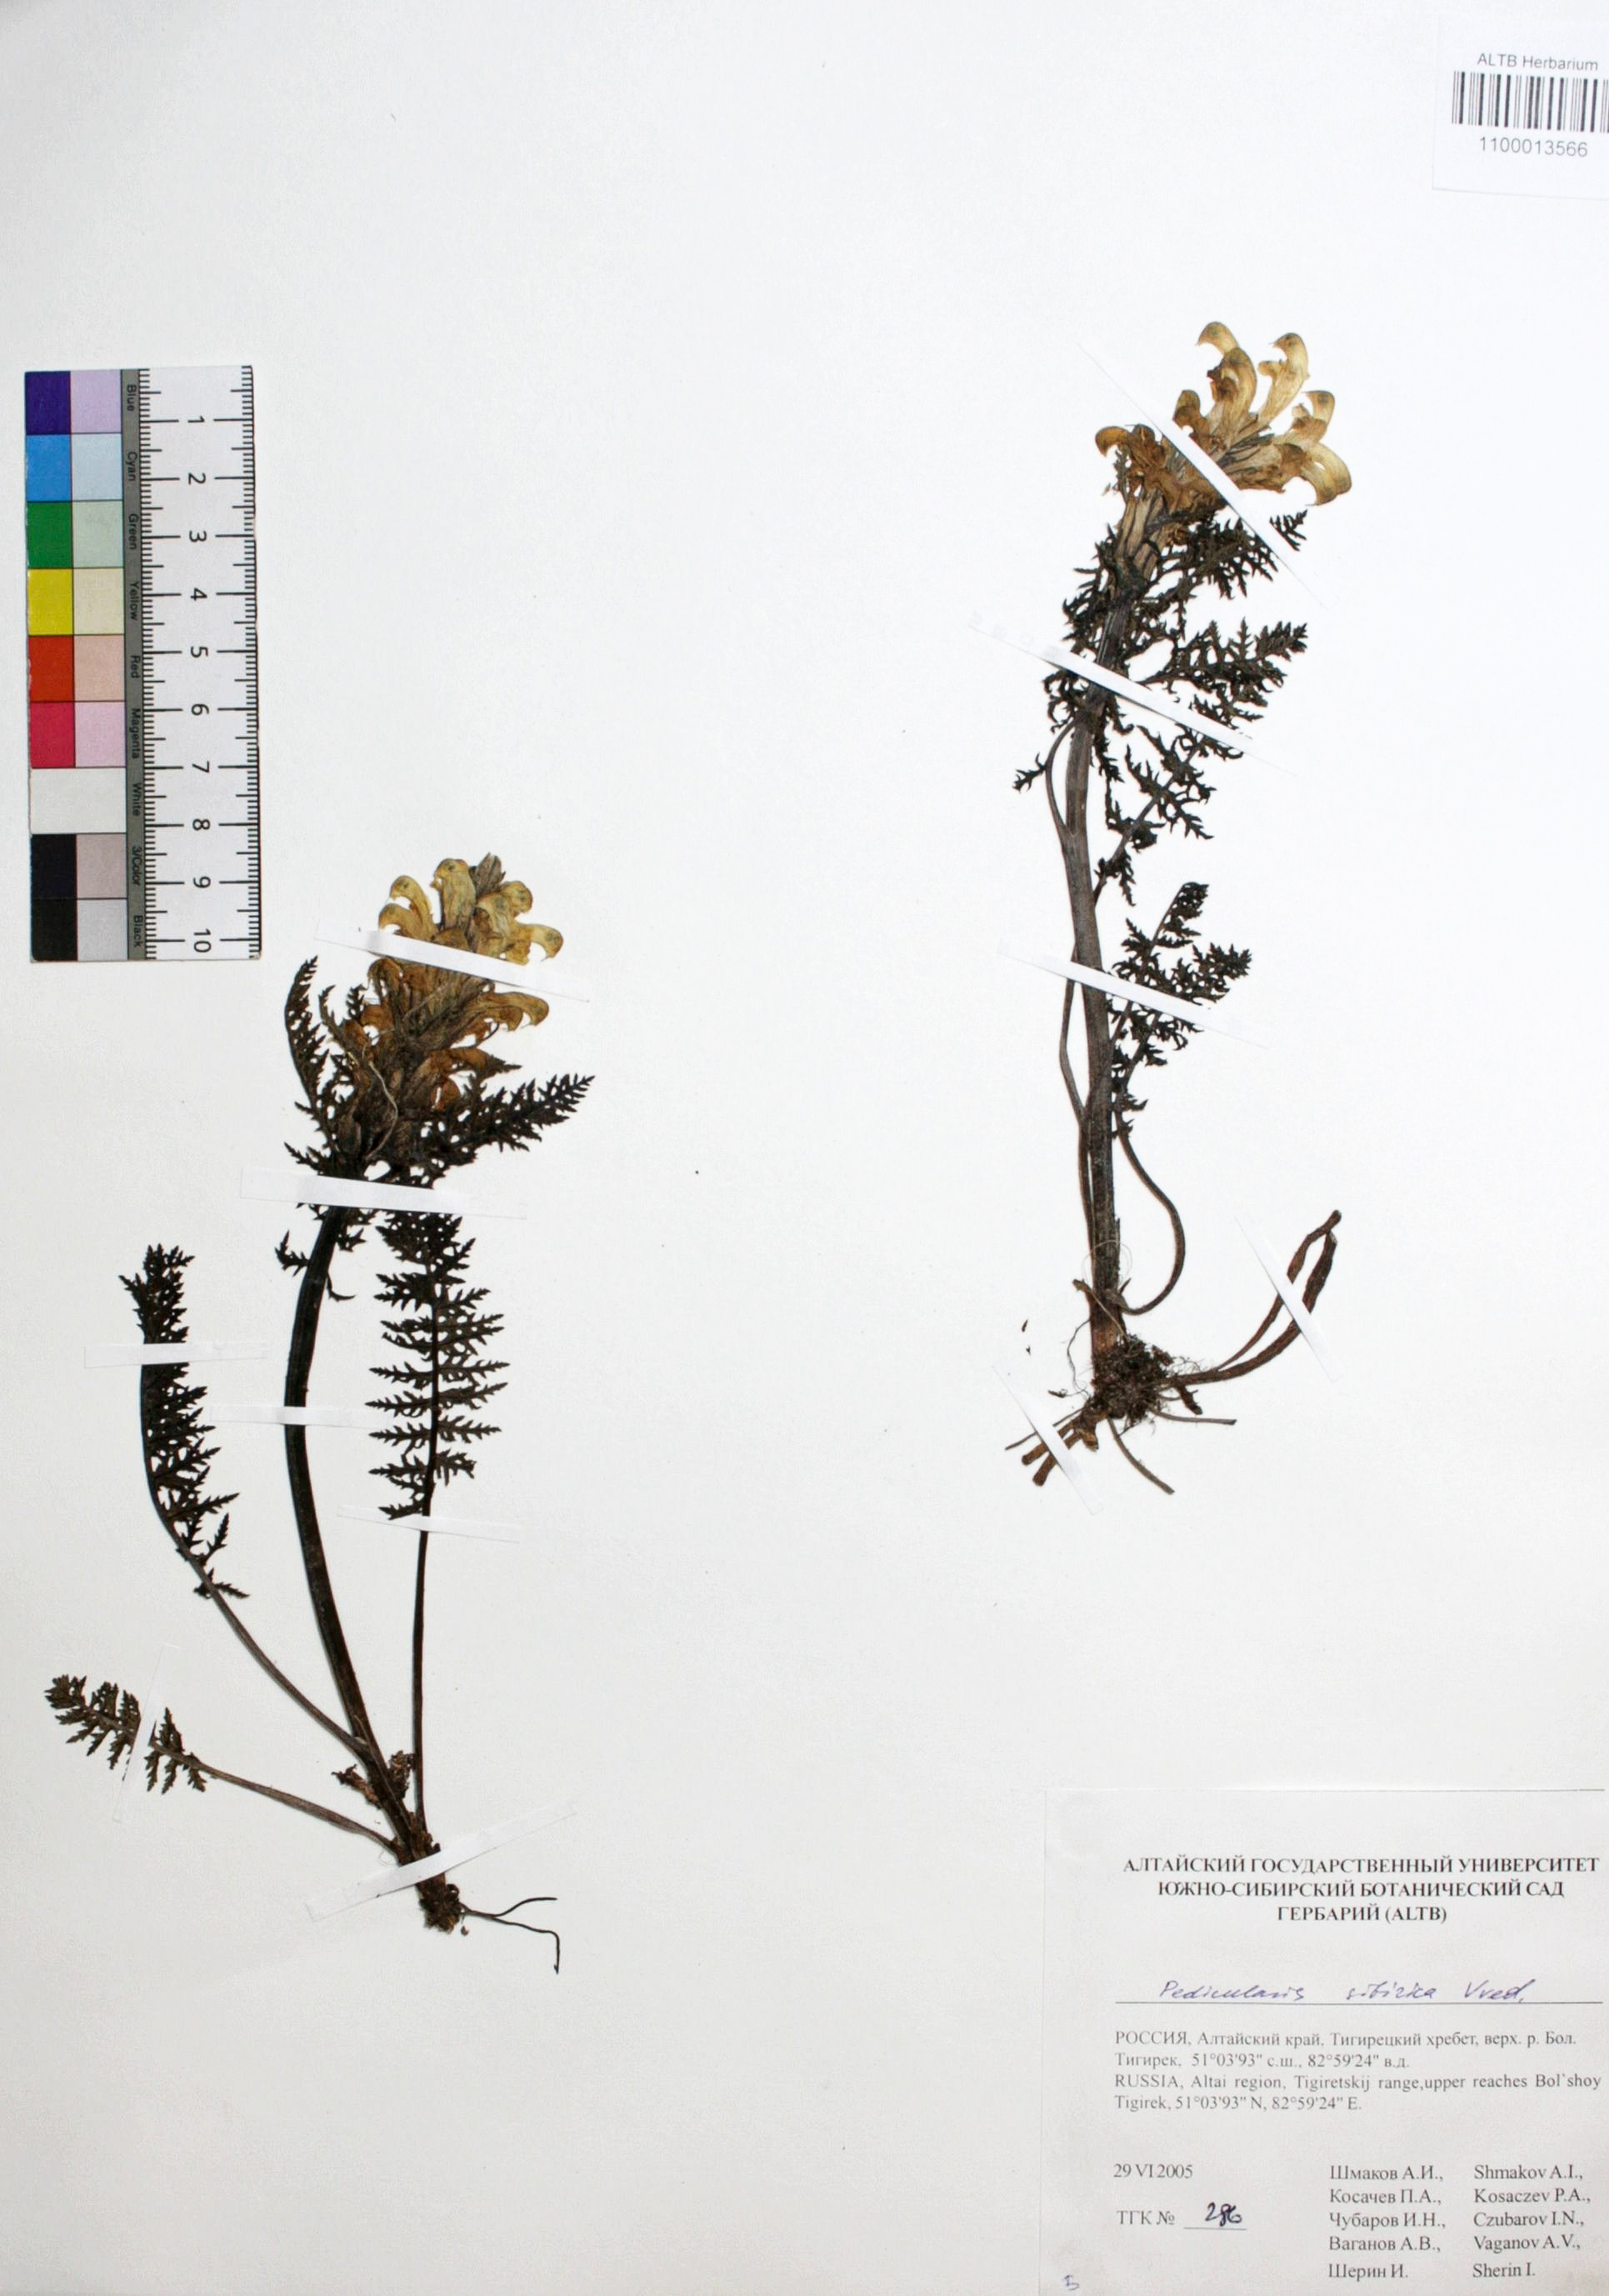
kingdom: Plantae
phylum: Tracheophyta
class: Magnoliopsida
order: Lamiales
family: Orobanchaceae
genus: Pedicularis
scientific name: Pedicularis sibirica
